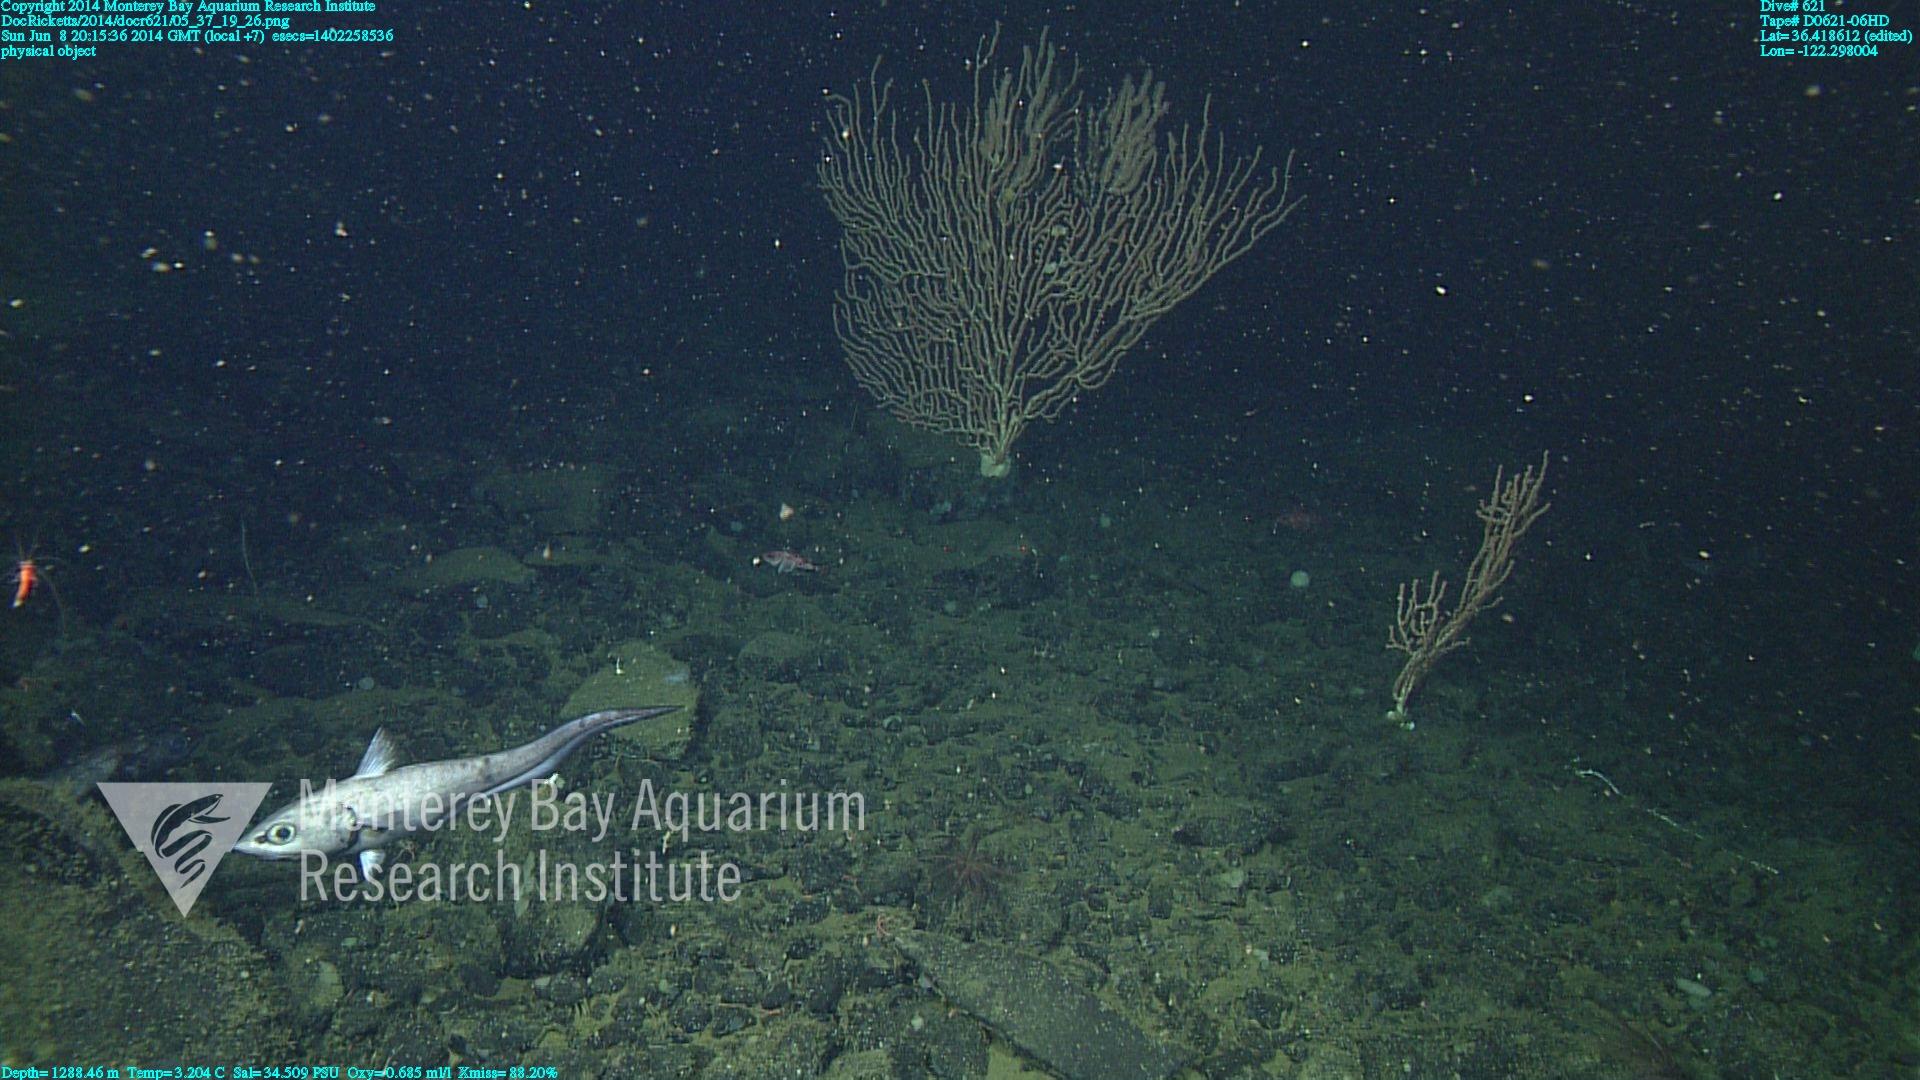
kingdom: Animalia
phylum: Cnidaria
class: Anthozoa
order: Scleralcyonacea
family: Keratoisididae
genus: Keratoisis
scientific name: Keratoisis
